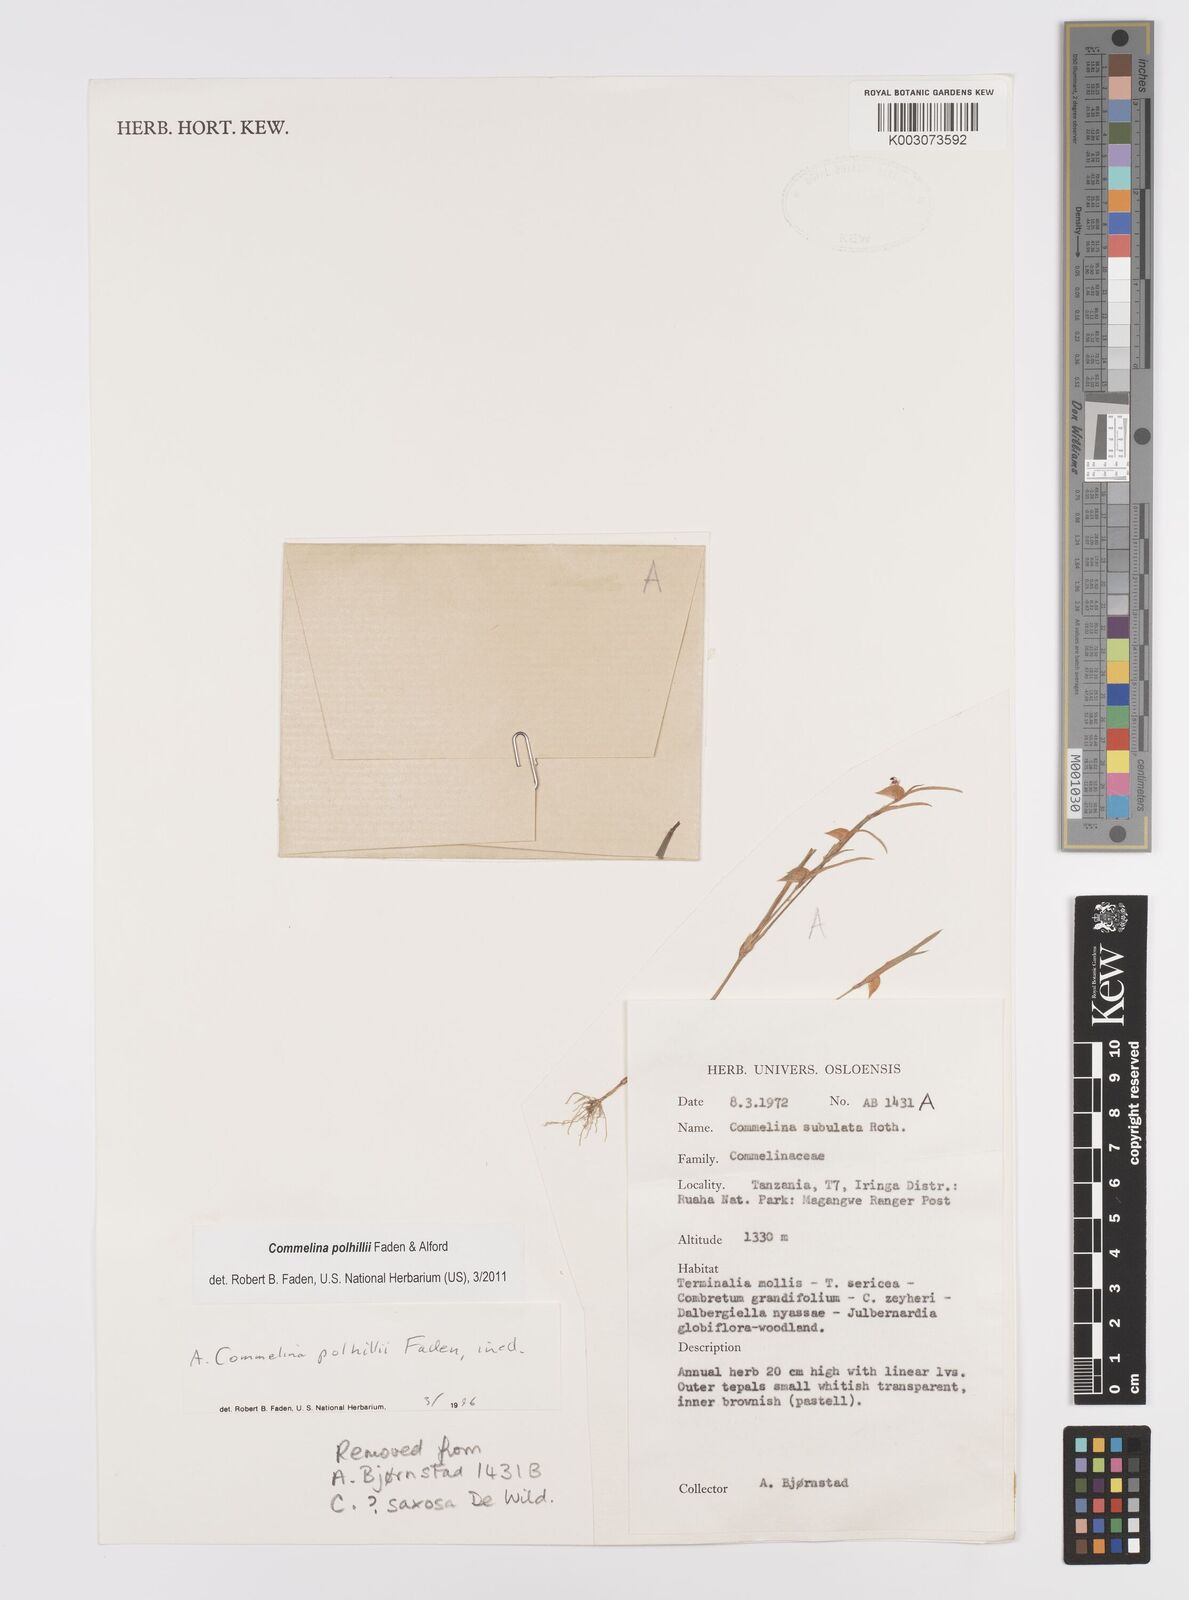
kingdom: Plantae
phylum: Tracheophyta
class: Liliopsida
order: Commelinales
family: Commelinaceae
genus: Commelina
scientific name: Commelina polhillii
